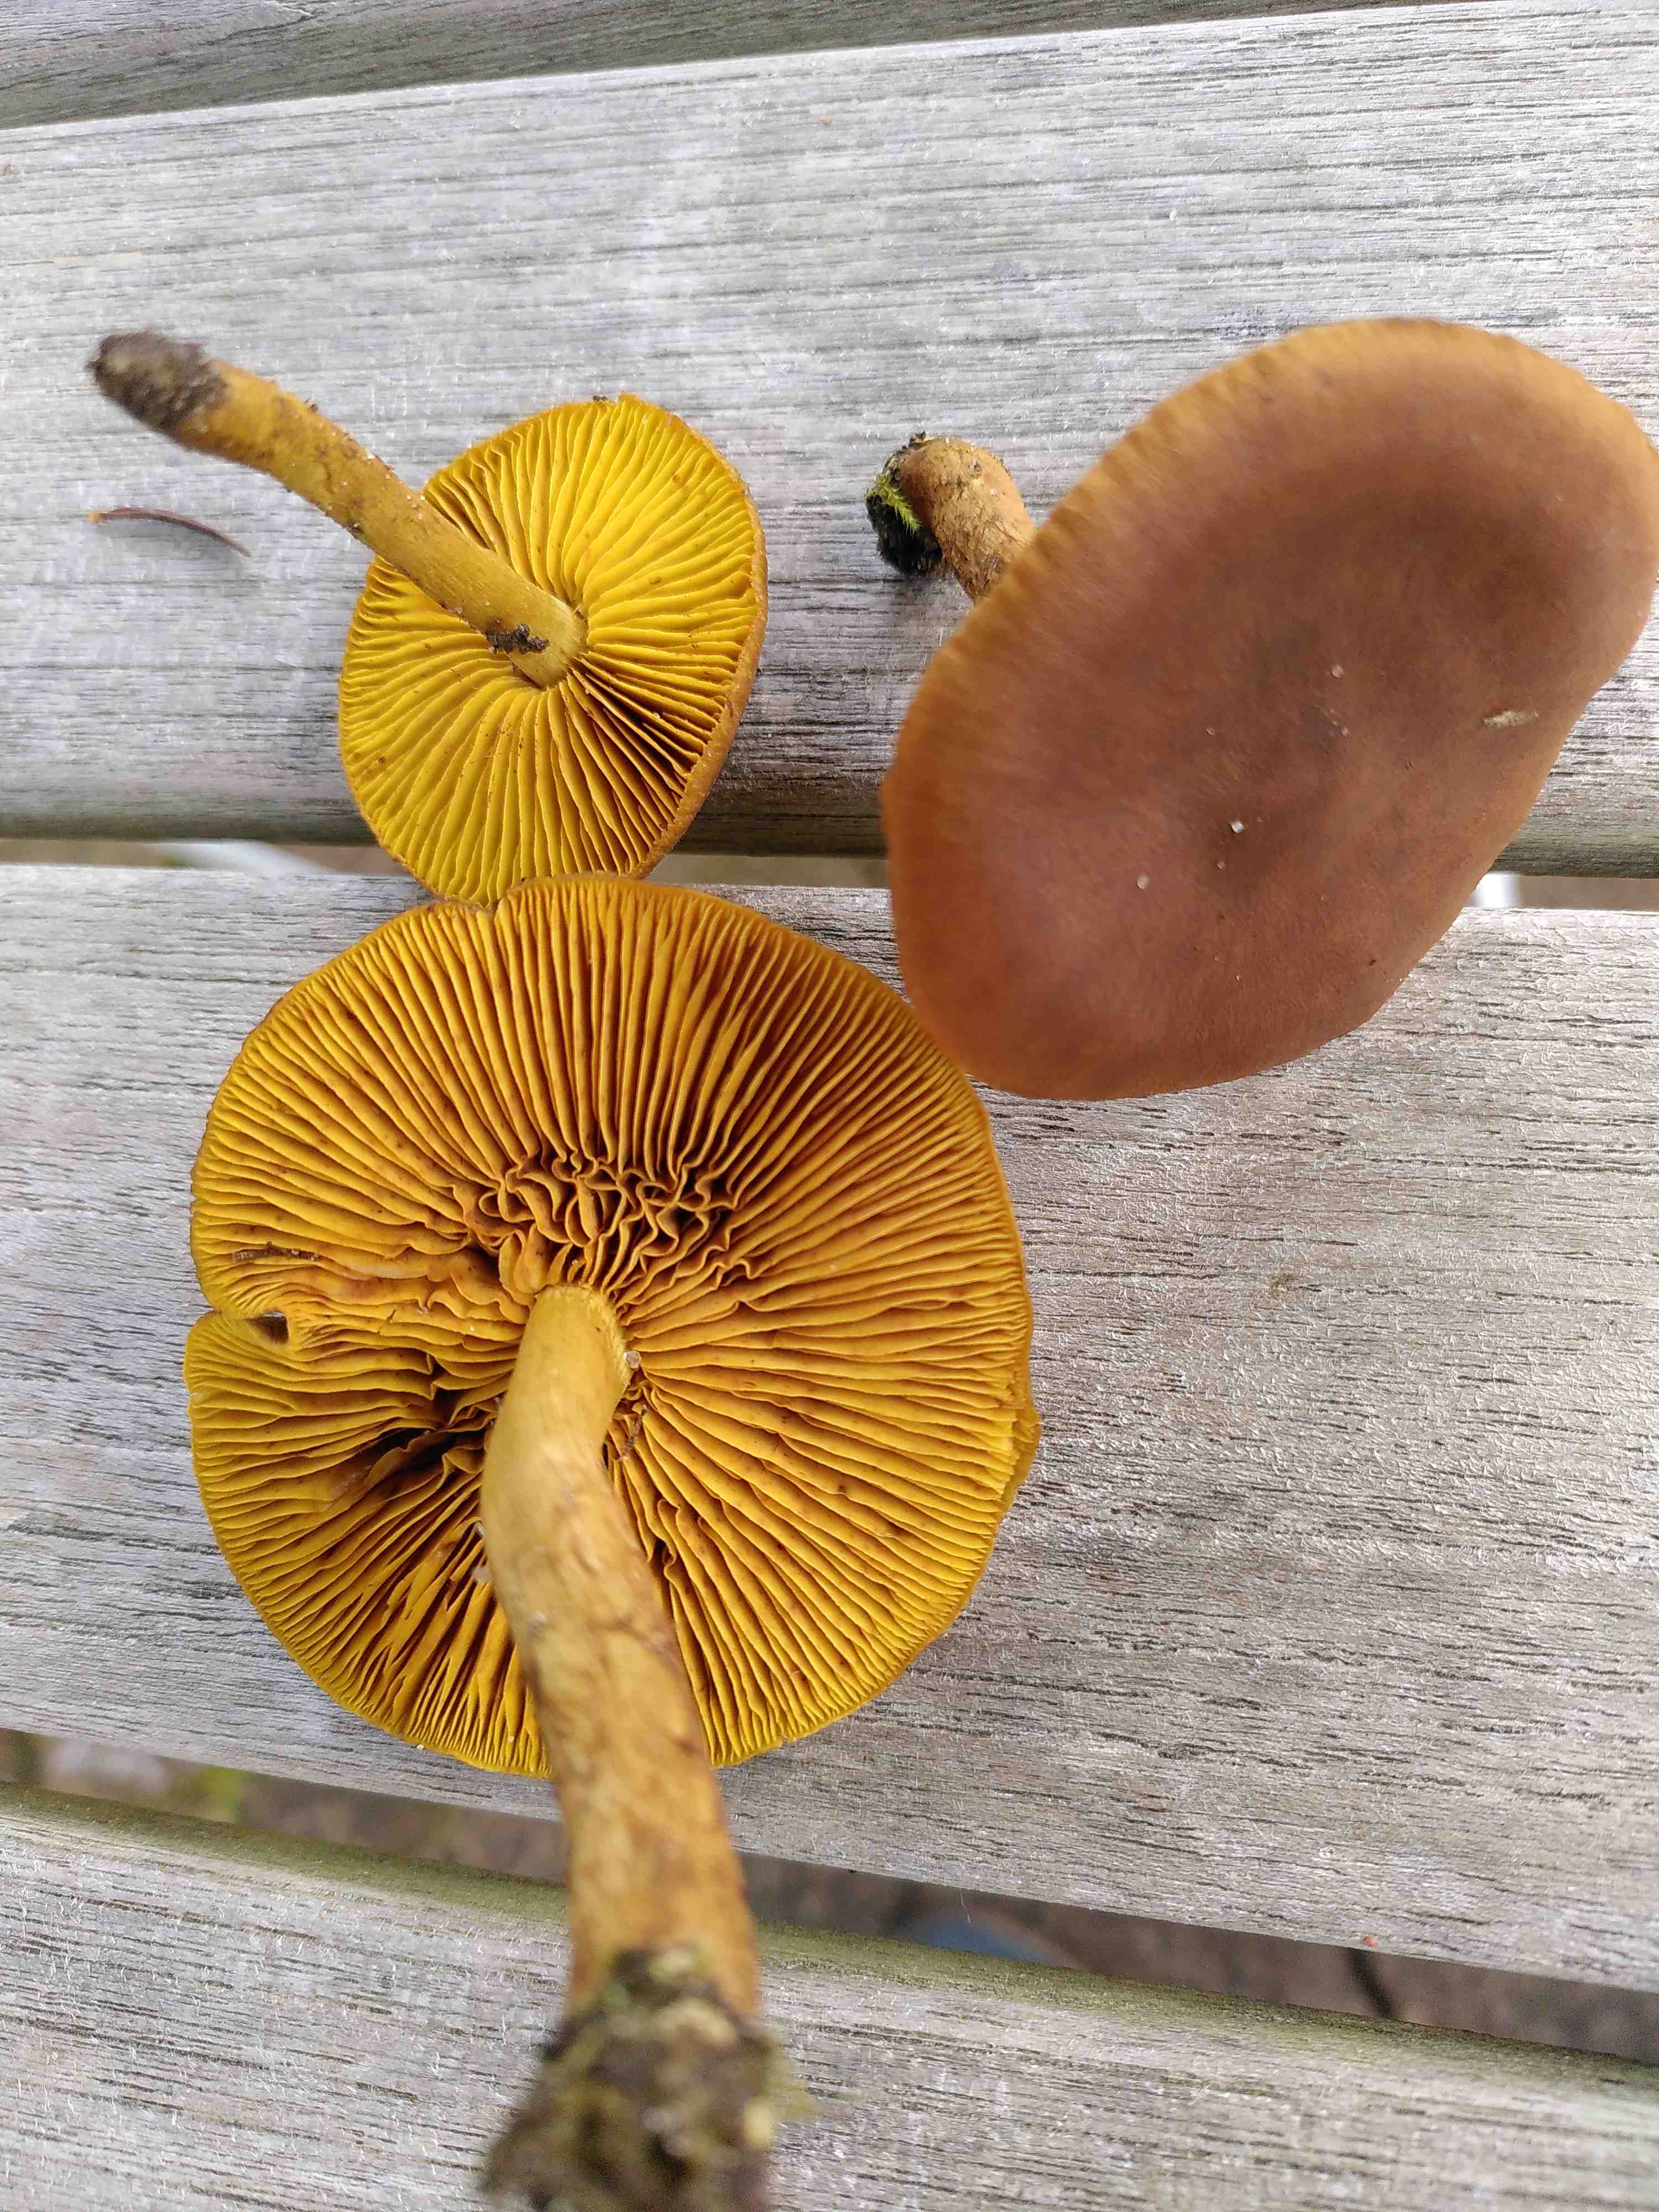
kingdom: Fungi
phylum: Basidiomycota
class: Agaricomycetes
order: Agaricales
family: Cortinariaceae
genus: Cortinarius
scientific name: Cortinarius
